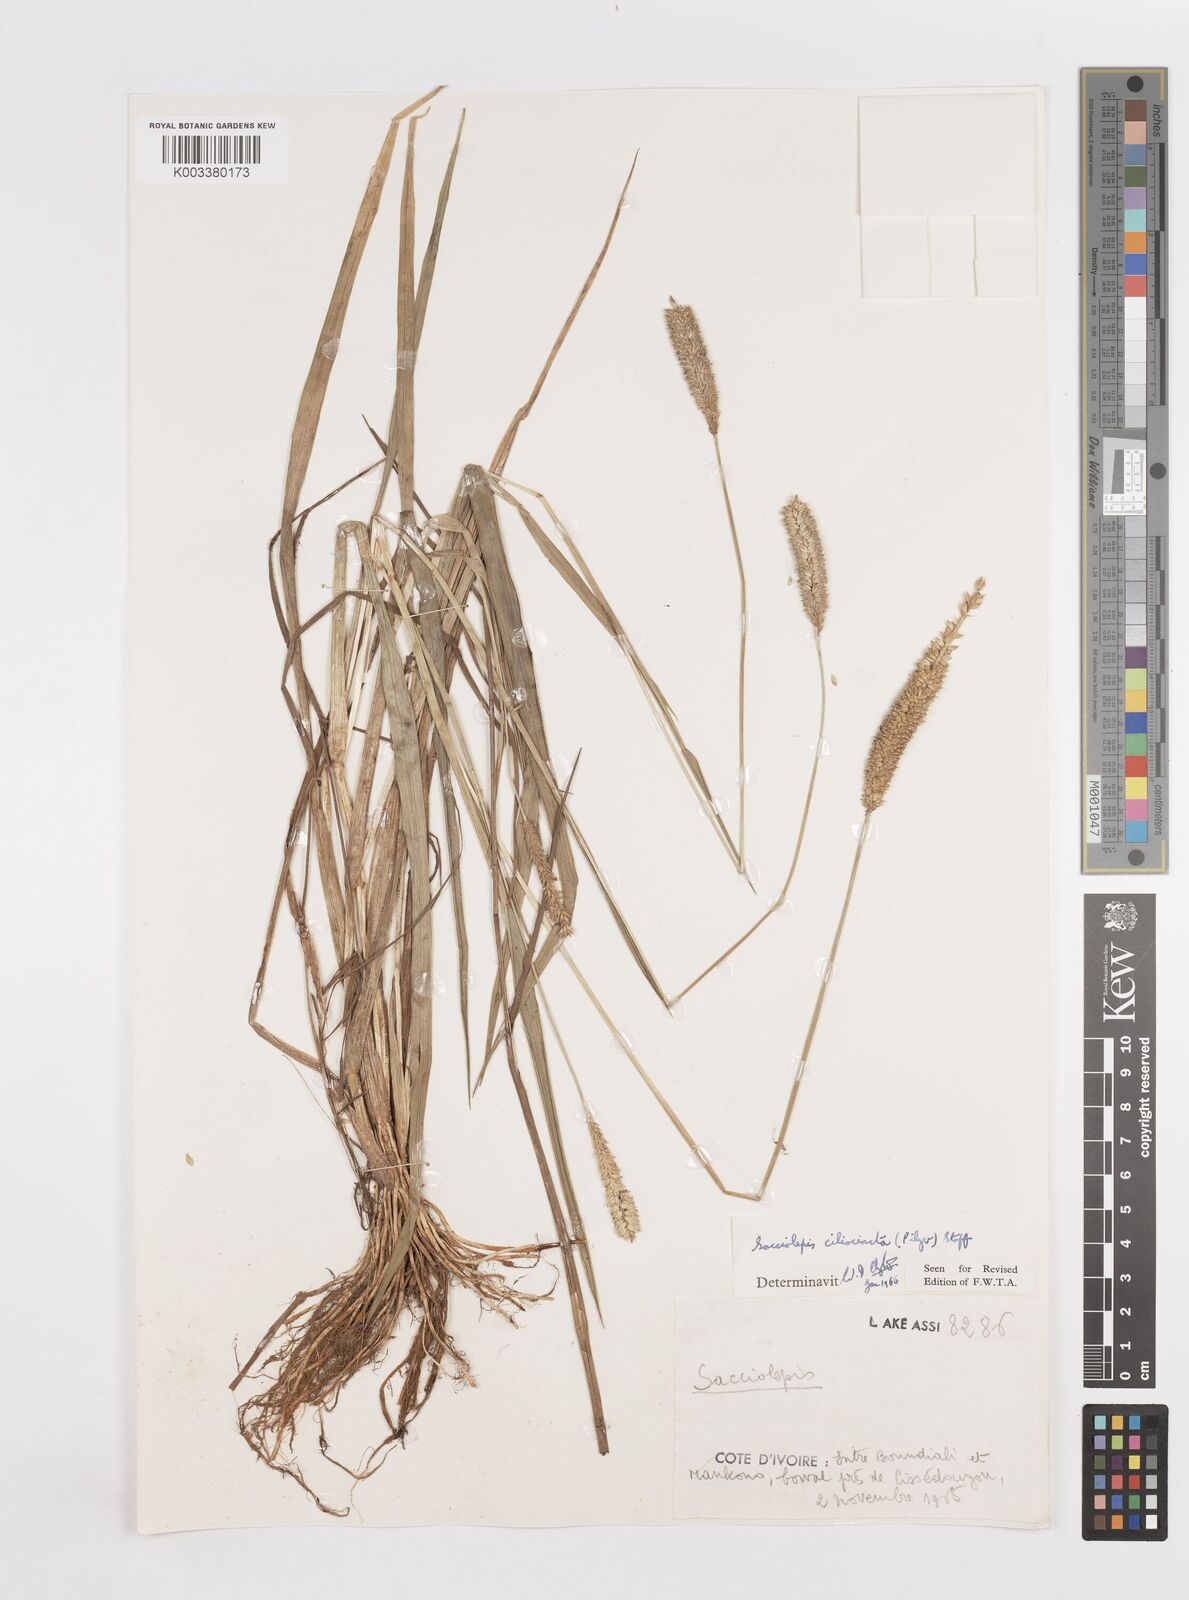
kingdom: Plantae
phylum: Tracheophyta
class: Liliopsida
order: Poales
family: Poaceae
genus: Sacciolepis
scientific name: Sacciolepis ciliocincta
